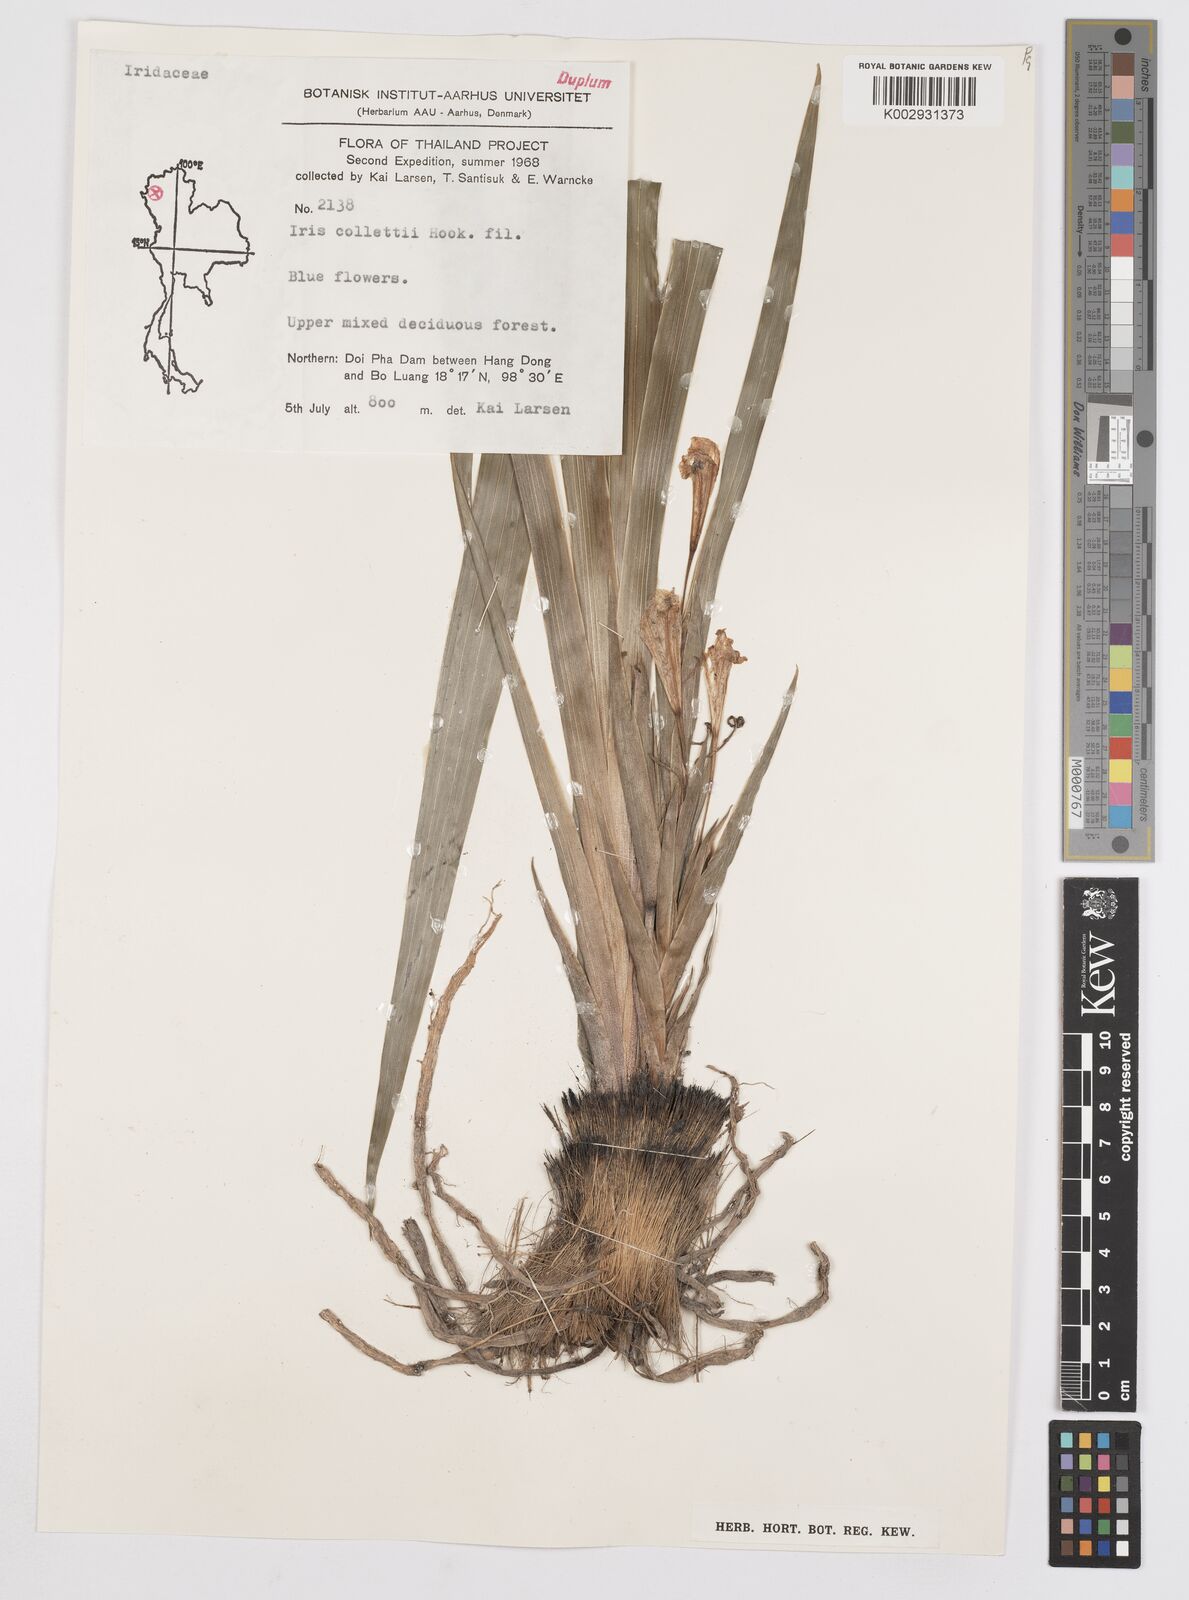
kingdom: Plantae
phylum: Tracheophyta
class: Liliopsida
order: Asparagales
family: Iridaceae
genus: Iris
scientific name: Iris collettii
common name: Plateau iris
